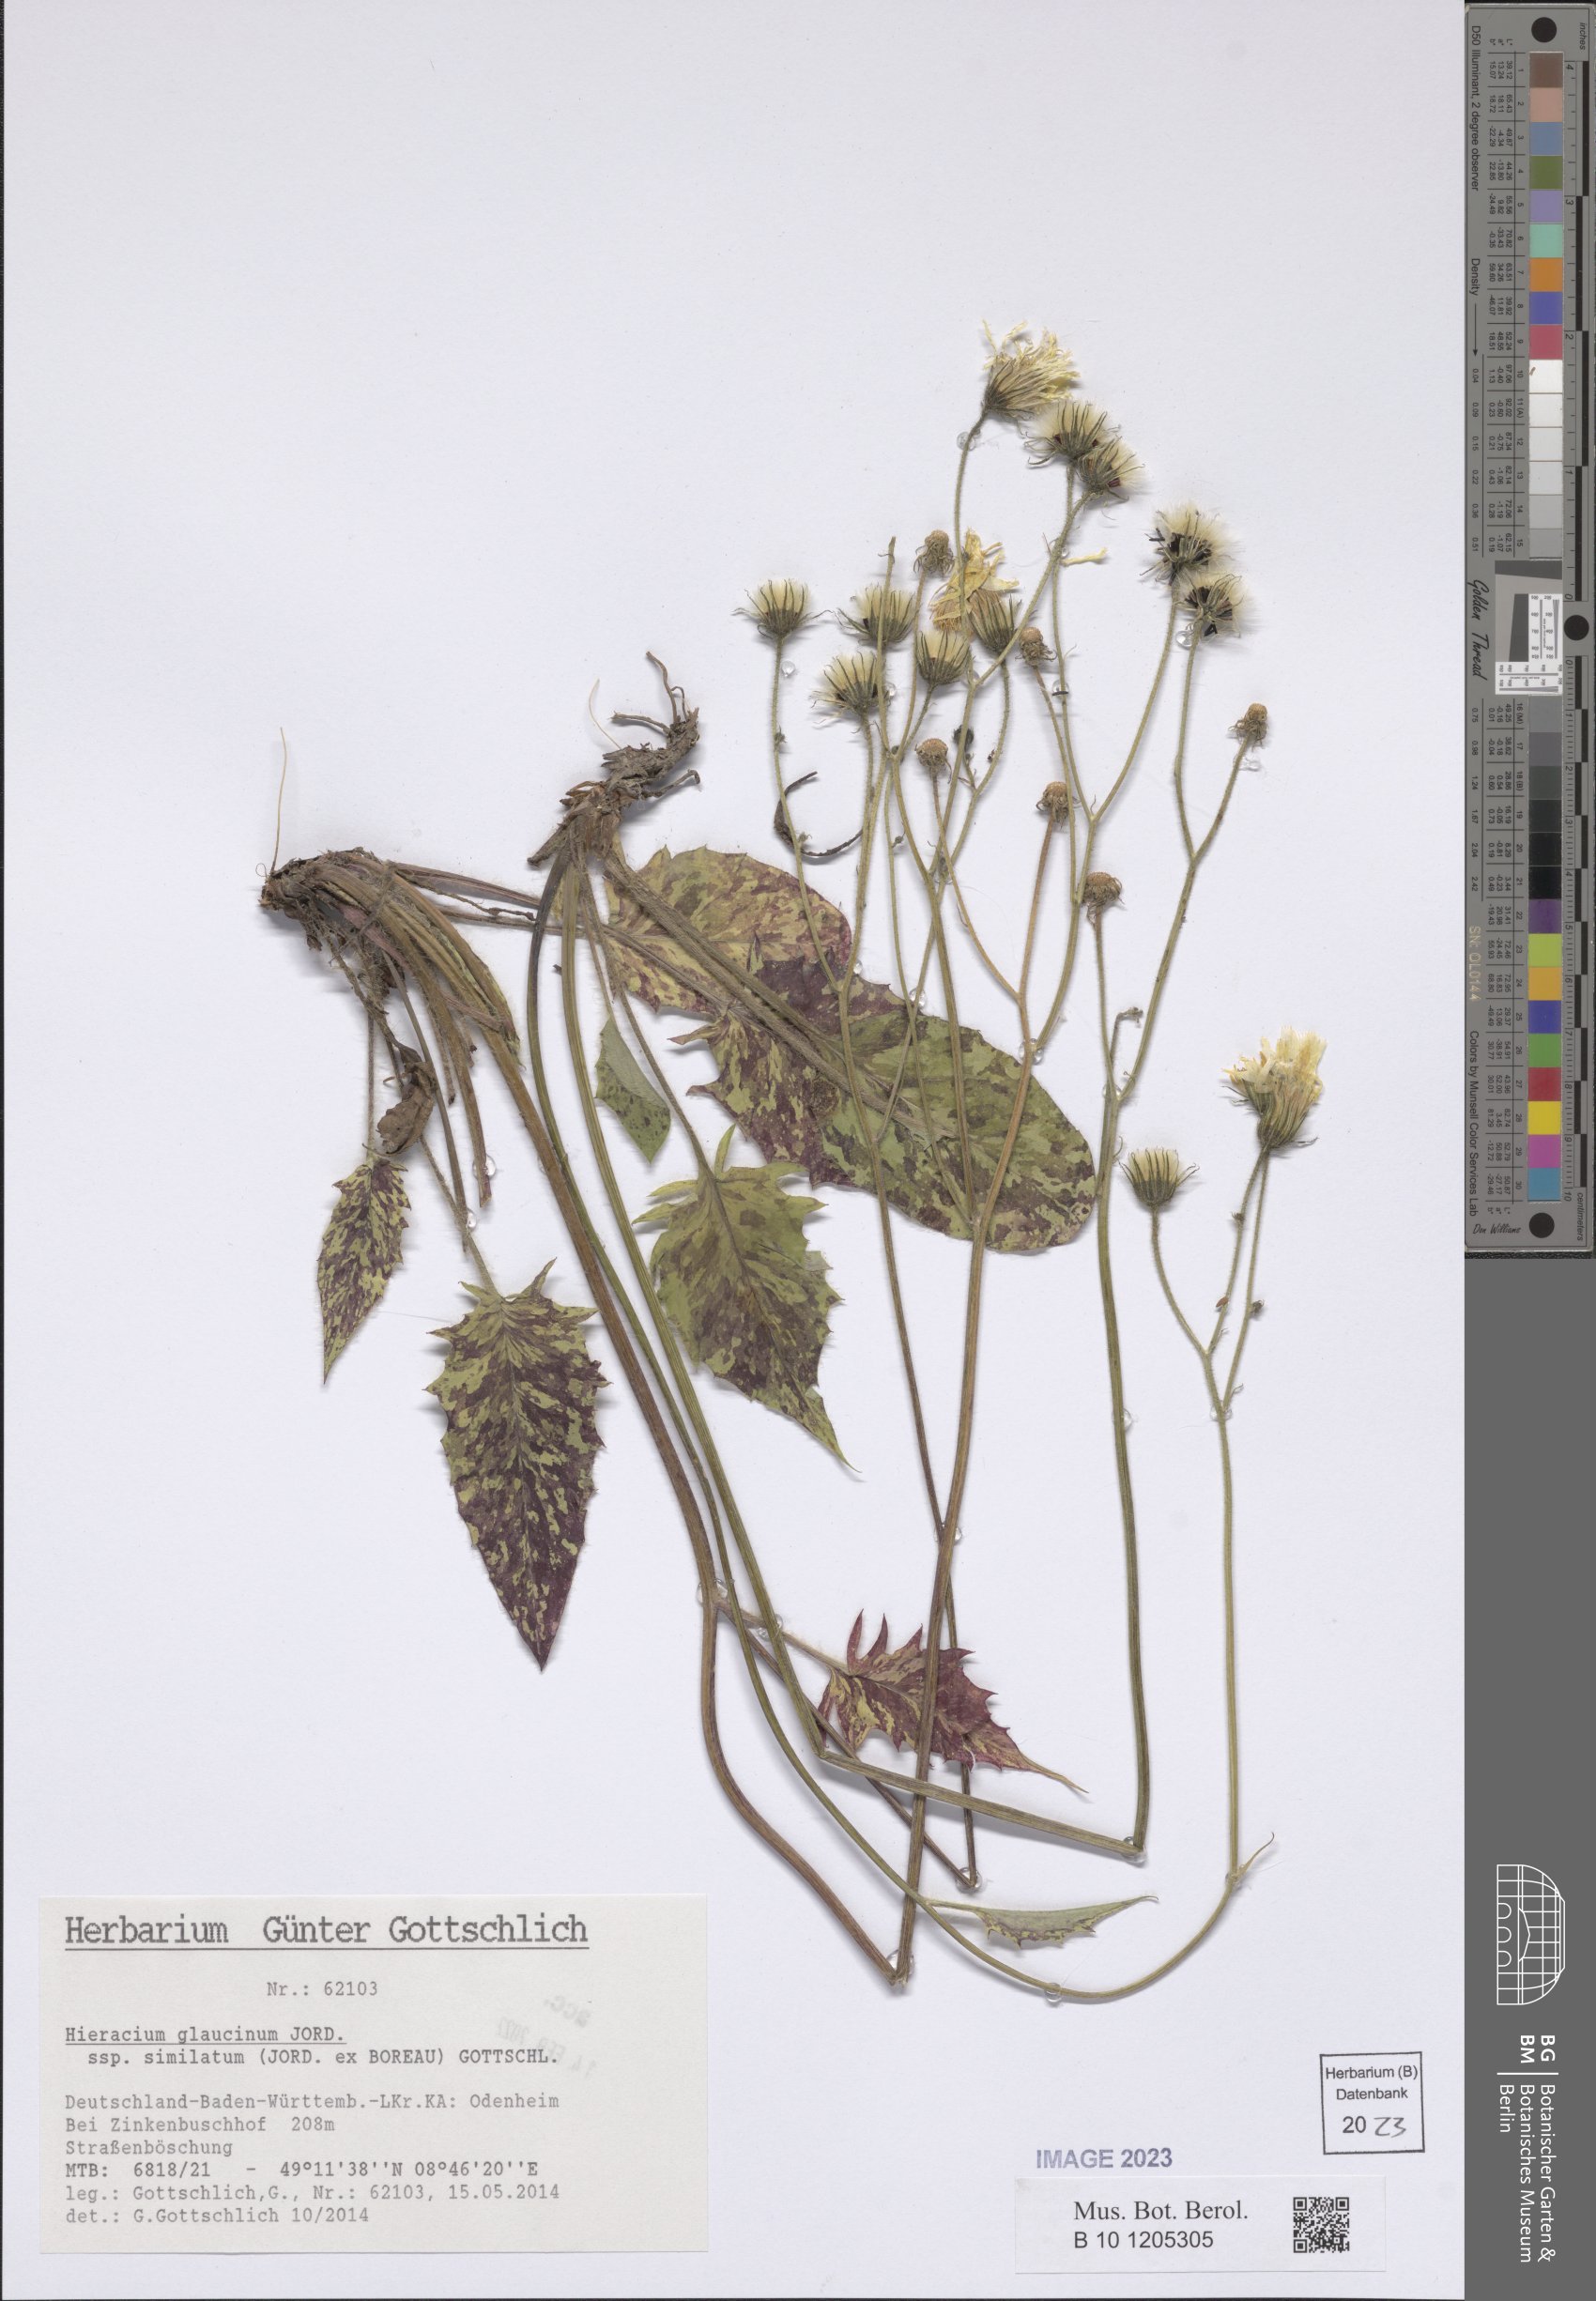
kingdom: Plantae
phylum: Tracheophyta
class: Magnoliopsida
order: Asterales
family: Asteraceae
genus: Hieracium
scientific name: Hieracium glaucinum
